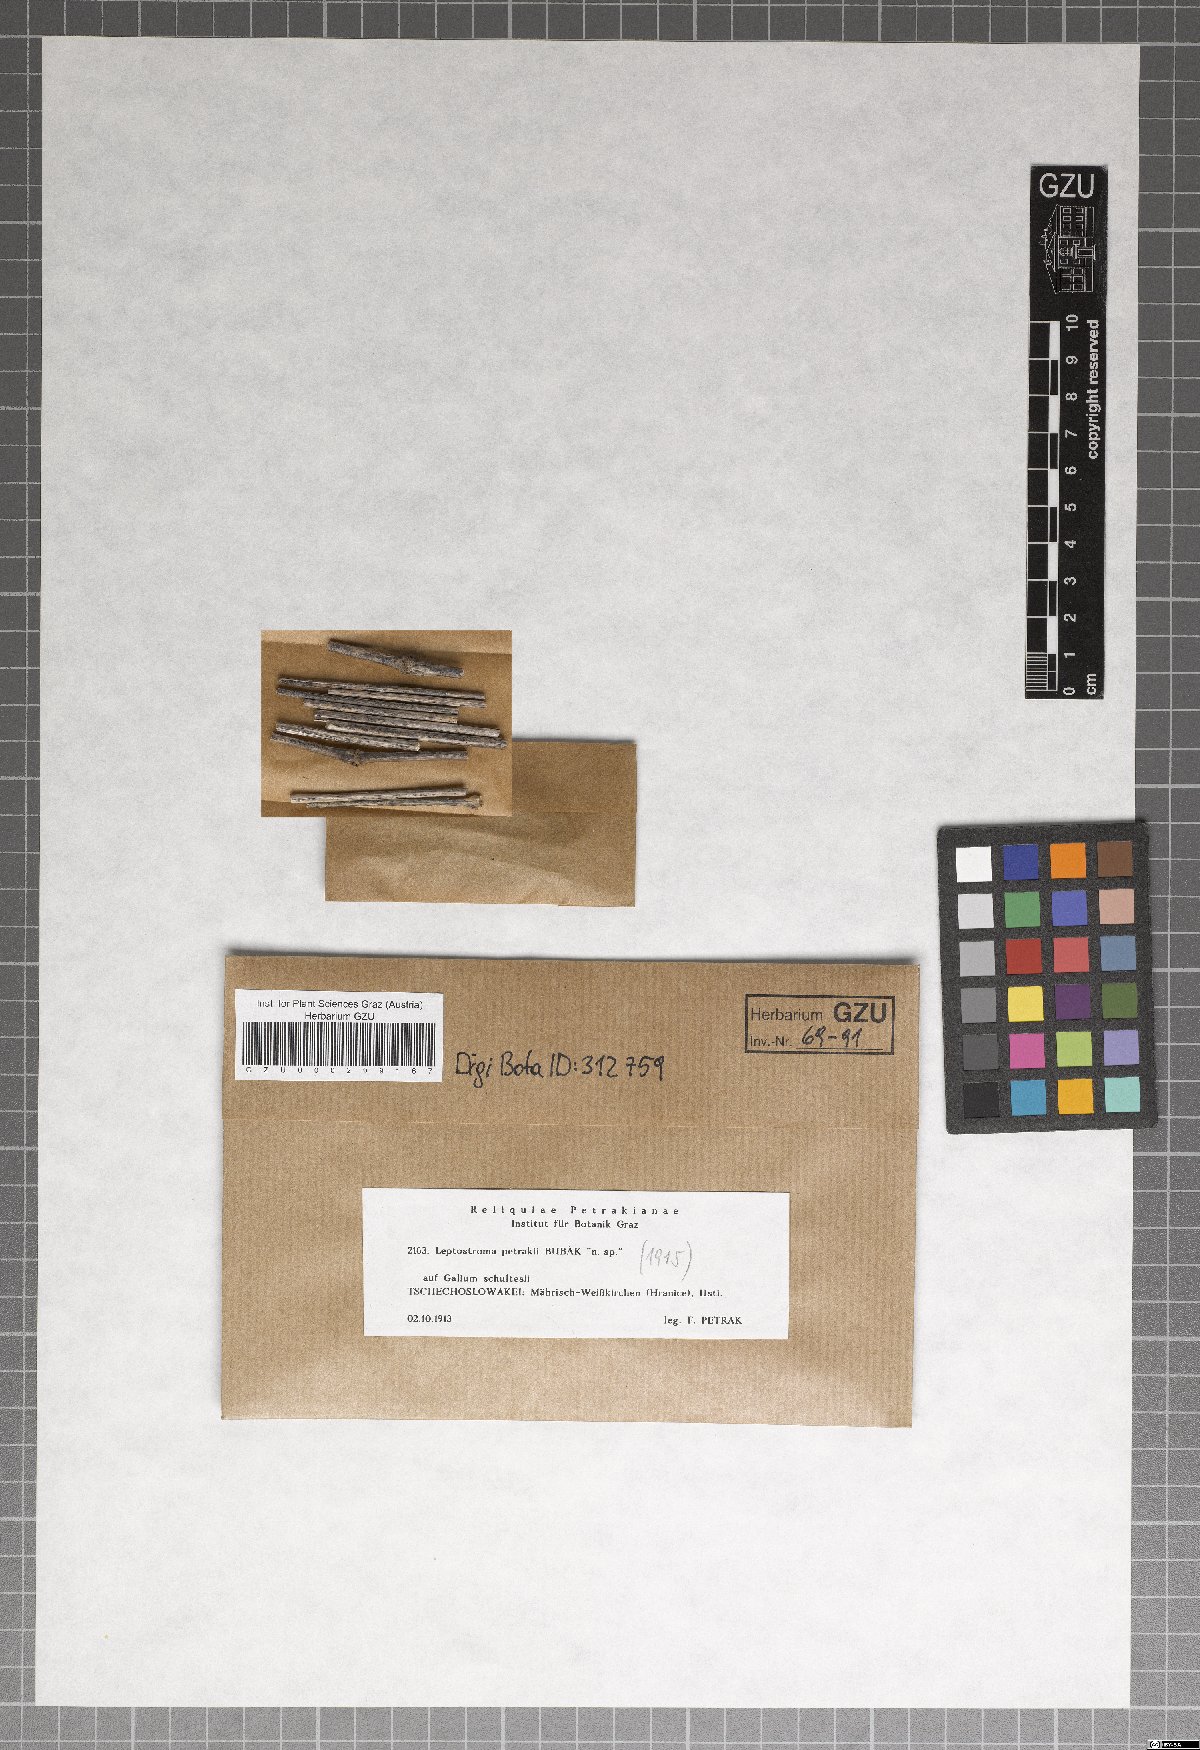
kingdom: Fungi
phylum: Ascomycota
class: Leotiomycetes
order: Rhytismatales
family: Rhytismataceae
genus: Leptostroma
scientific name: Leptostroma
